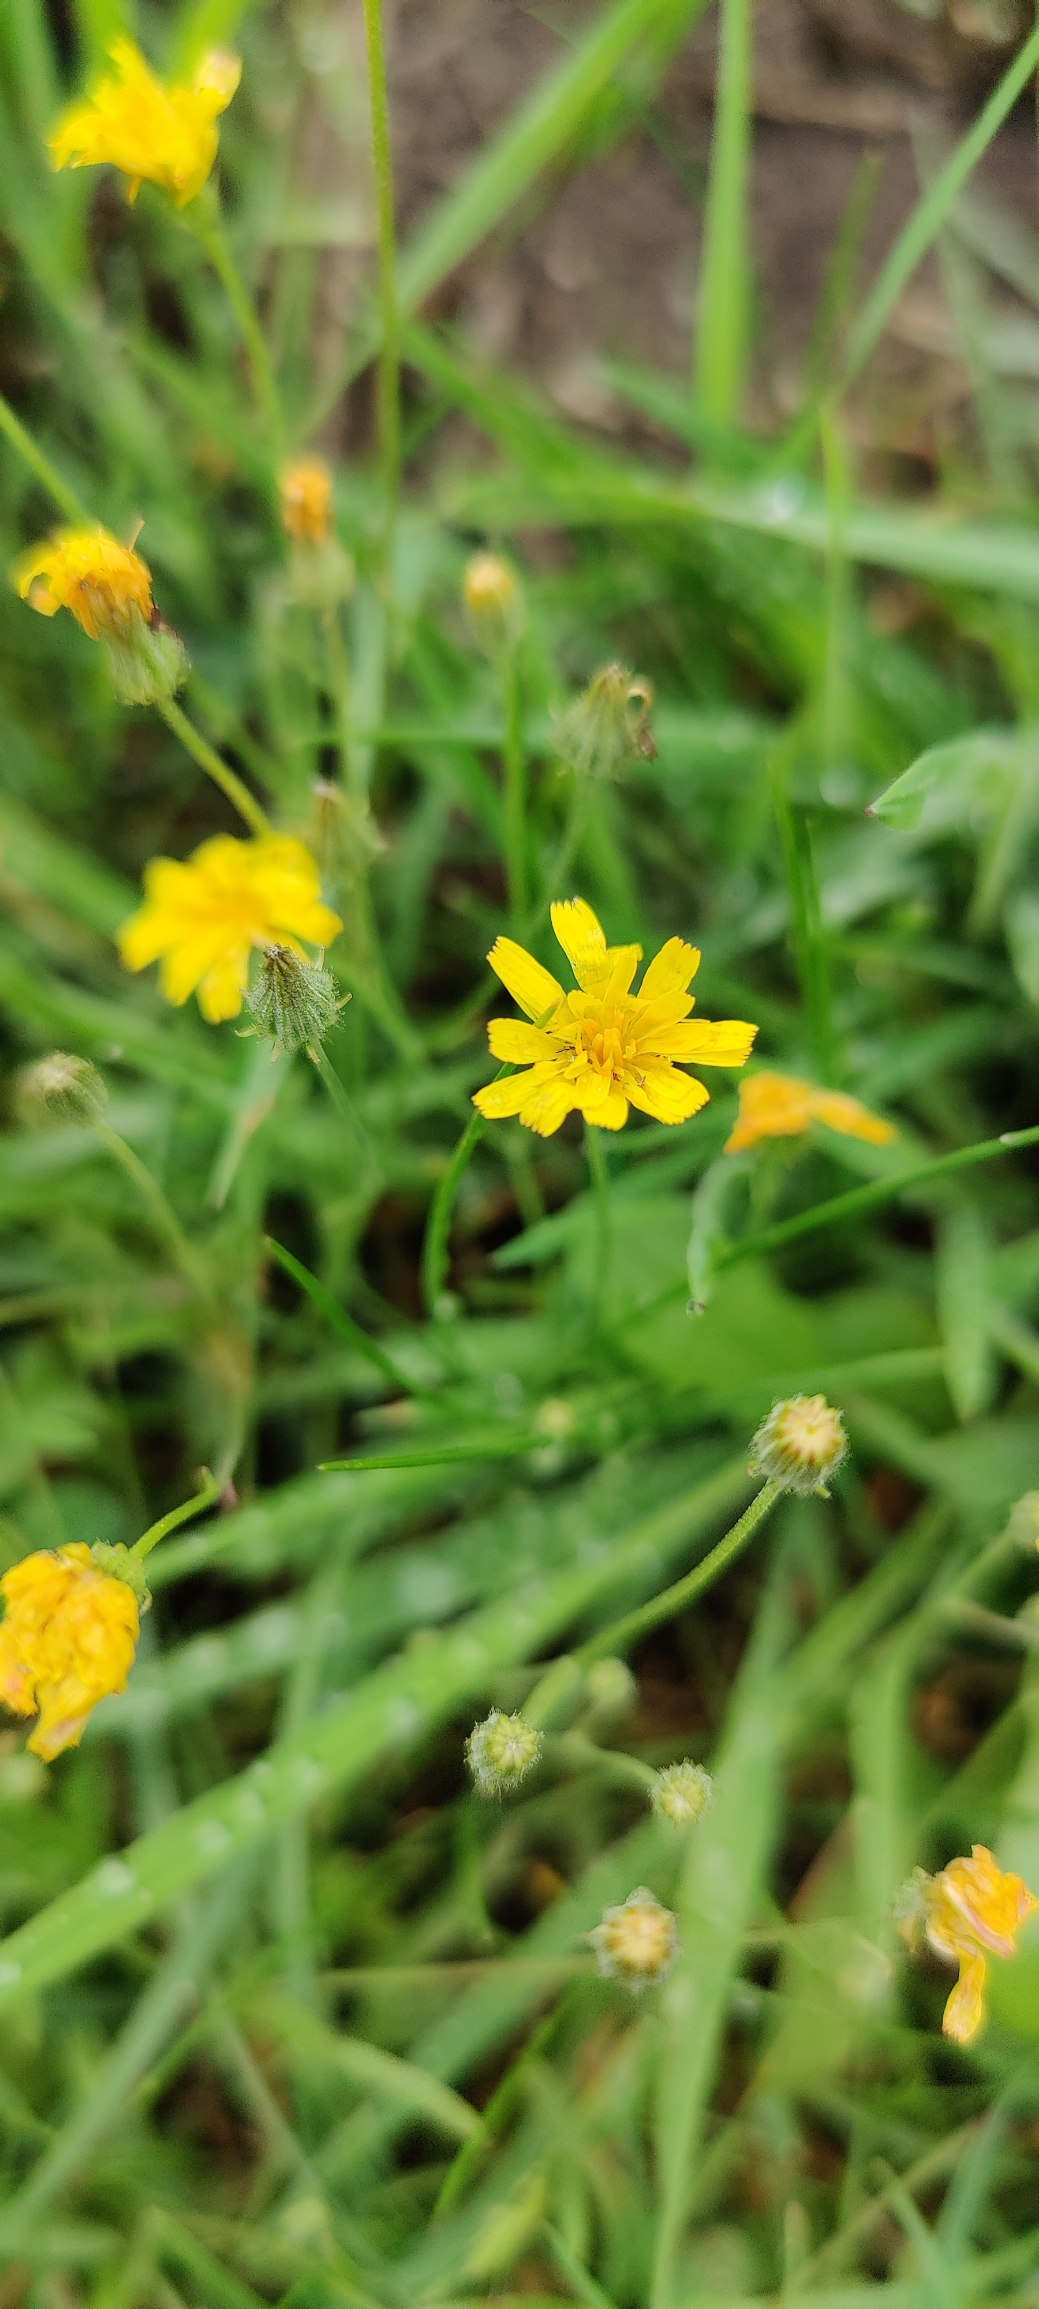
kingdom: Plantae
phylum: Tracheophyta
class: Magnoliopsida
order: Asterales
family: Asteraceae
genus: Crepis
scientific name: Crepis
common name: Høgeskægslægten
